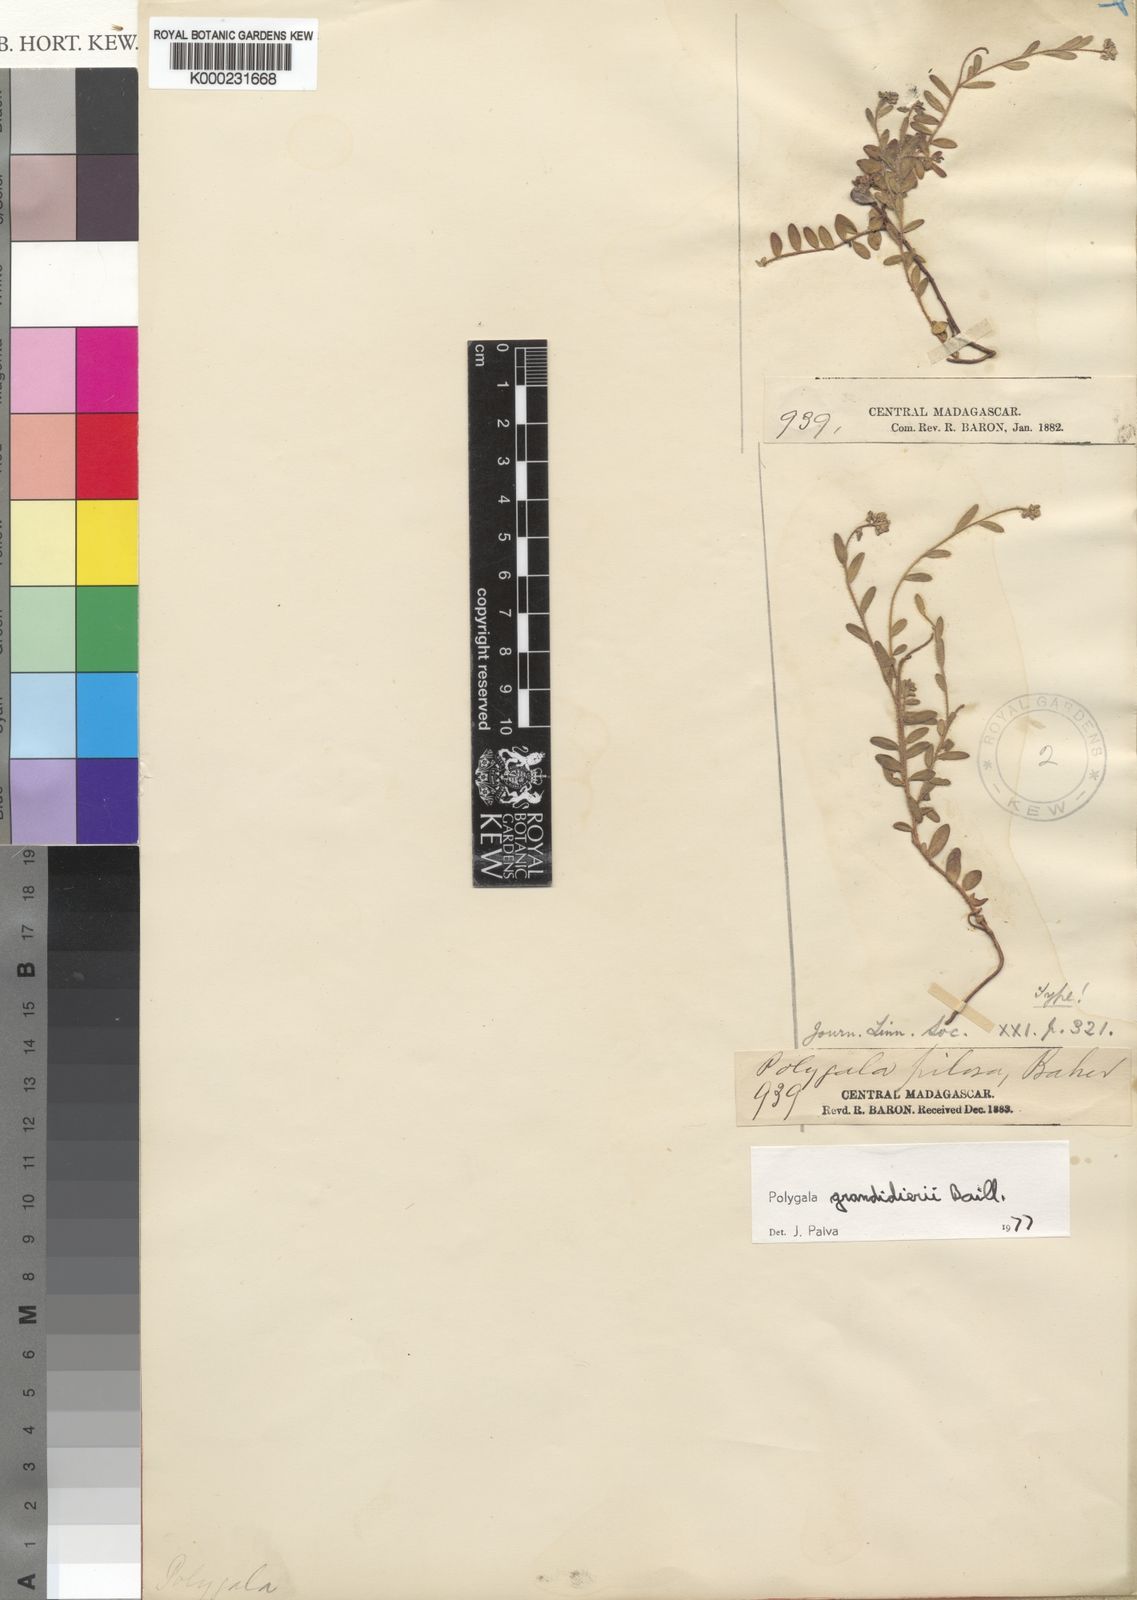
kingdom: Plantae
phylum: Tracheophyta
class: Magnoliopsida
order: Fabales
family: Polygalaceae
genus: Polygala
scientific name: Polygala grandidieri
